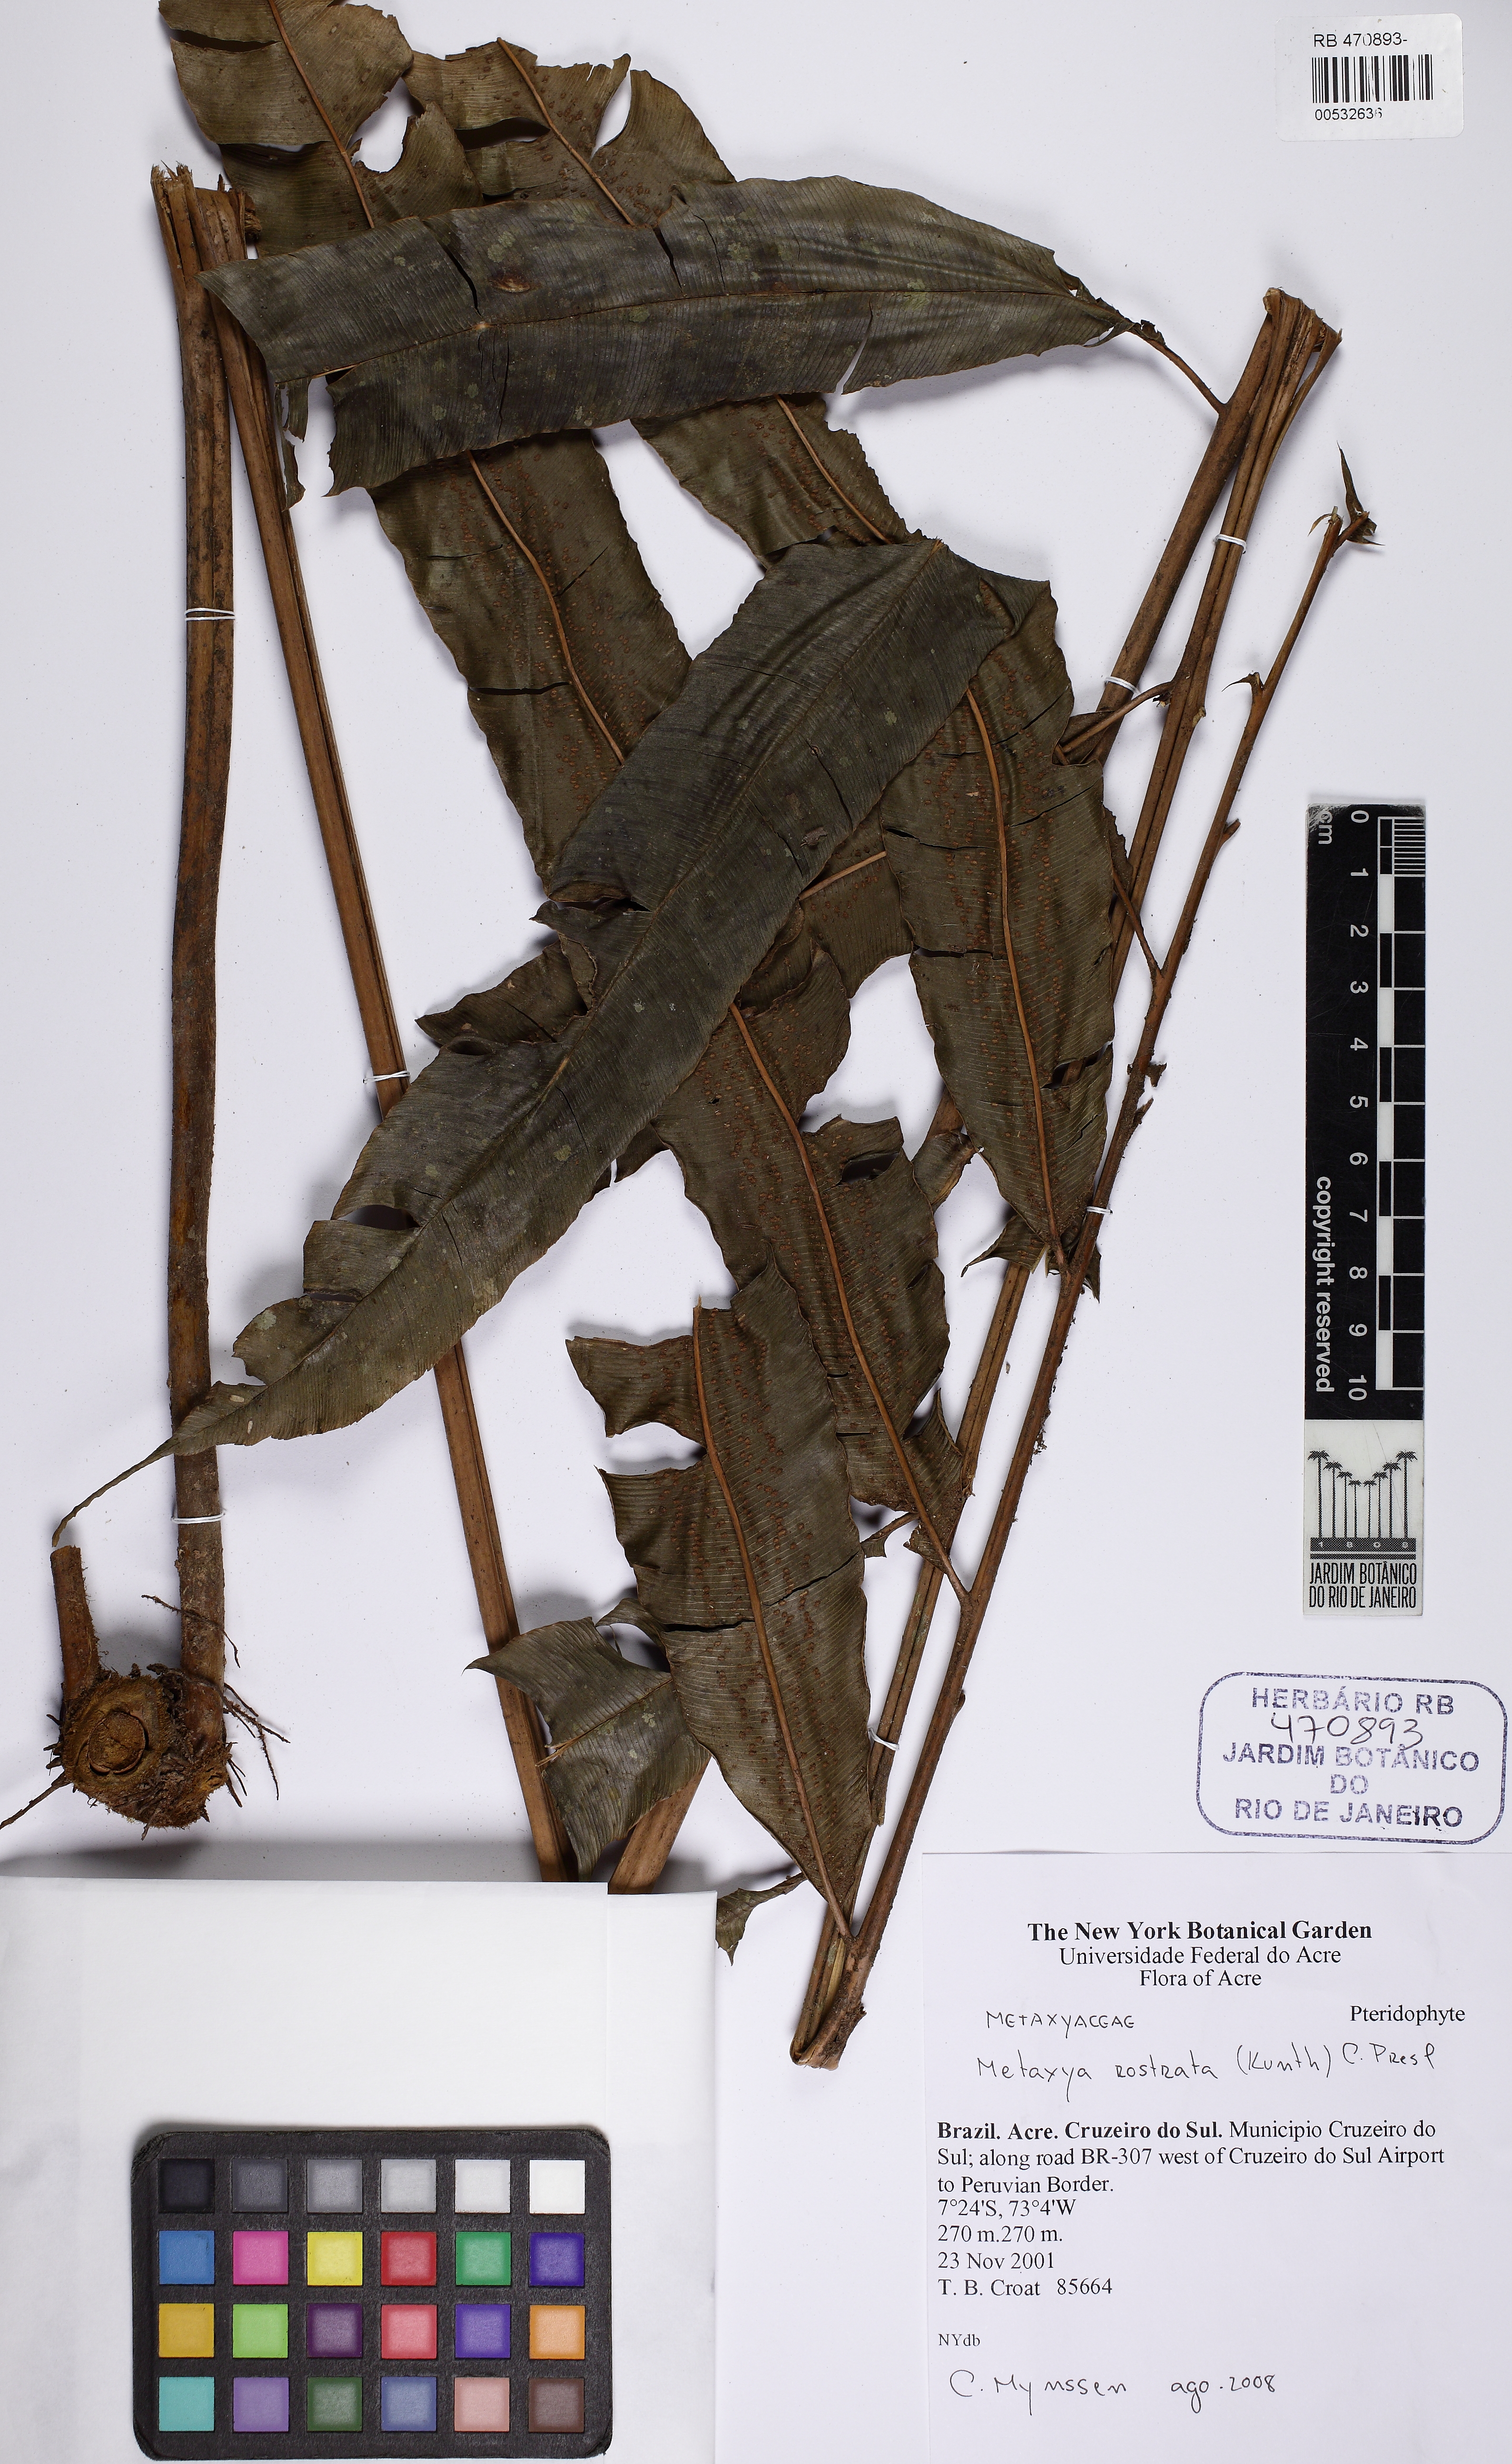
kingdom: Plantae
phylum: Tracheophyta
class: Polypodiopsida
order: Cyatheales
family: Metaxyaceae
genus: Metaxya
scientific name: Metaxya rostrata
